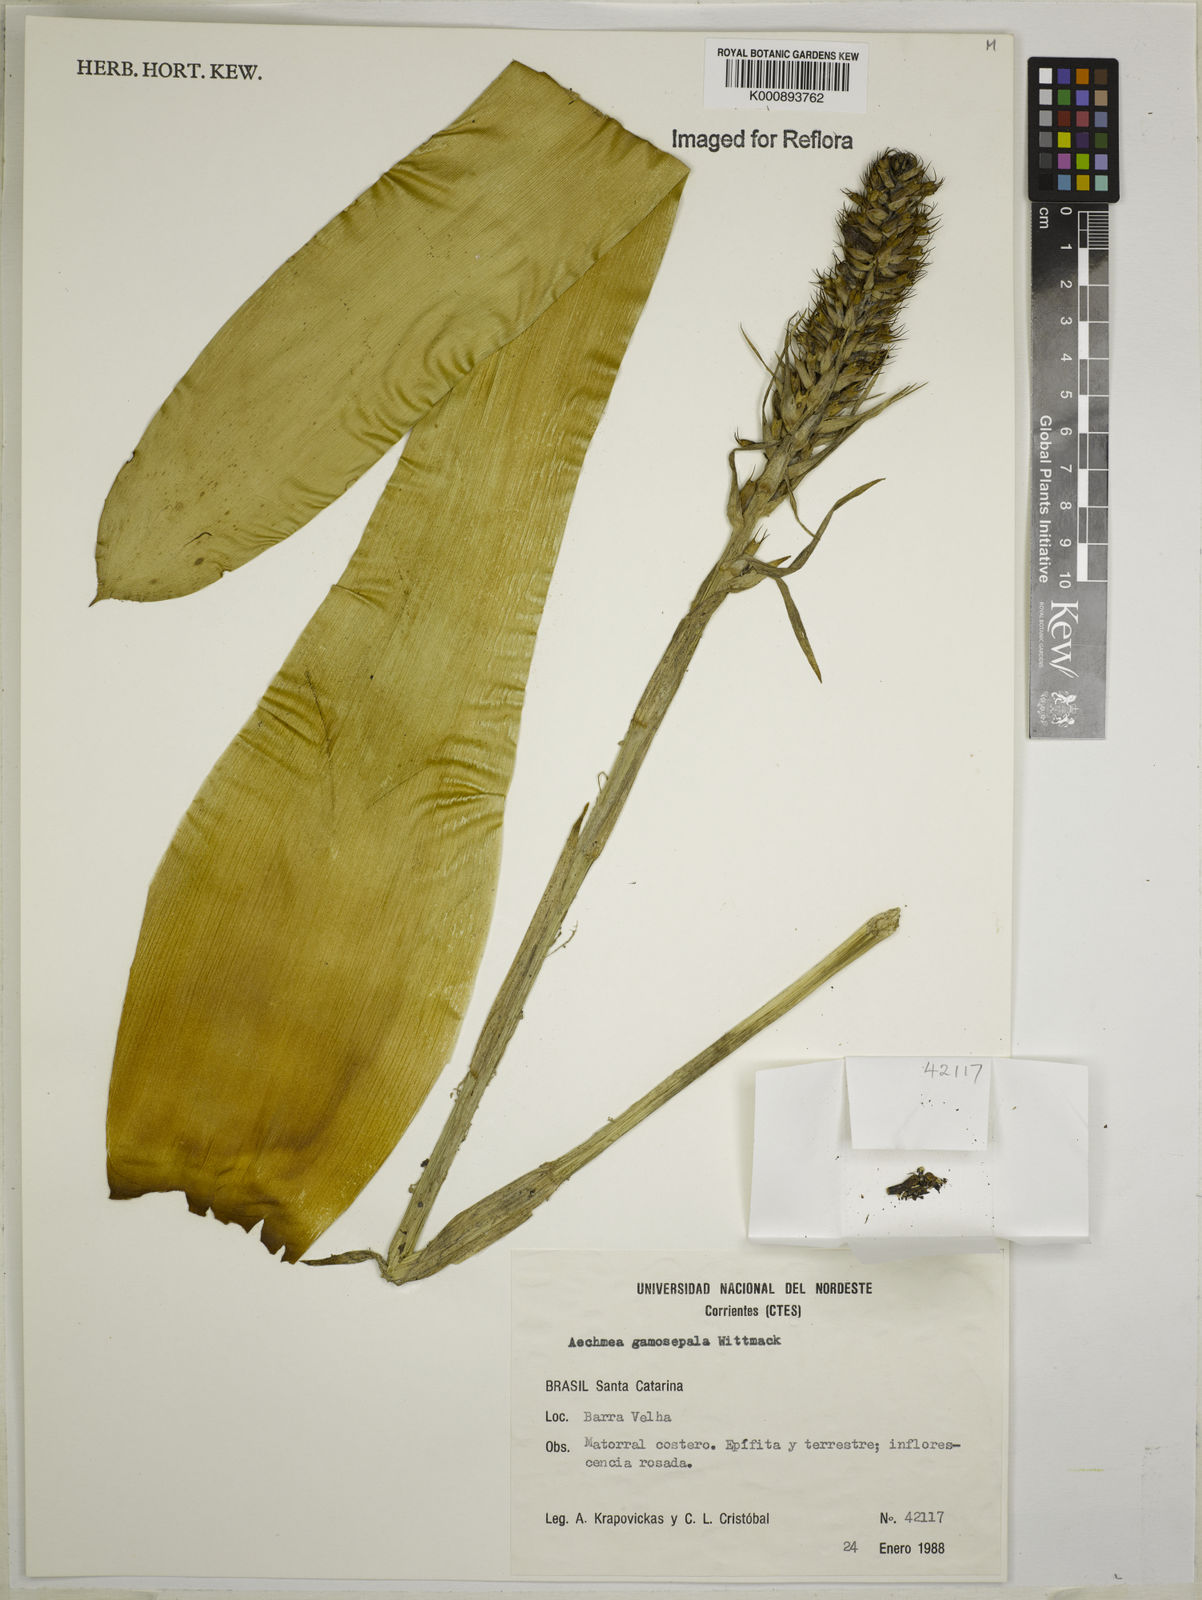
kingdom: Plantae
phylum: Tracheophyta
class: Liliopsida
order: Poales
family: Bromeliaceae
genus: Aechmea
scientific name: Aechmea gamosepala
